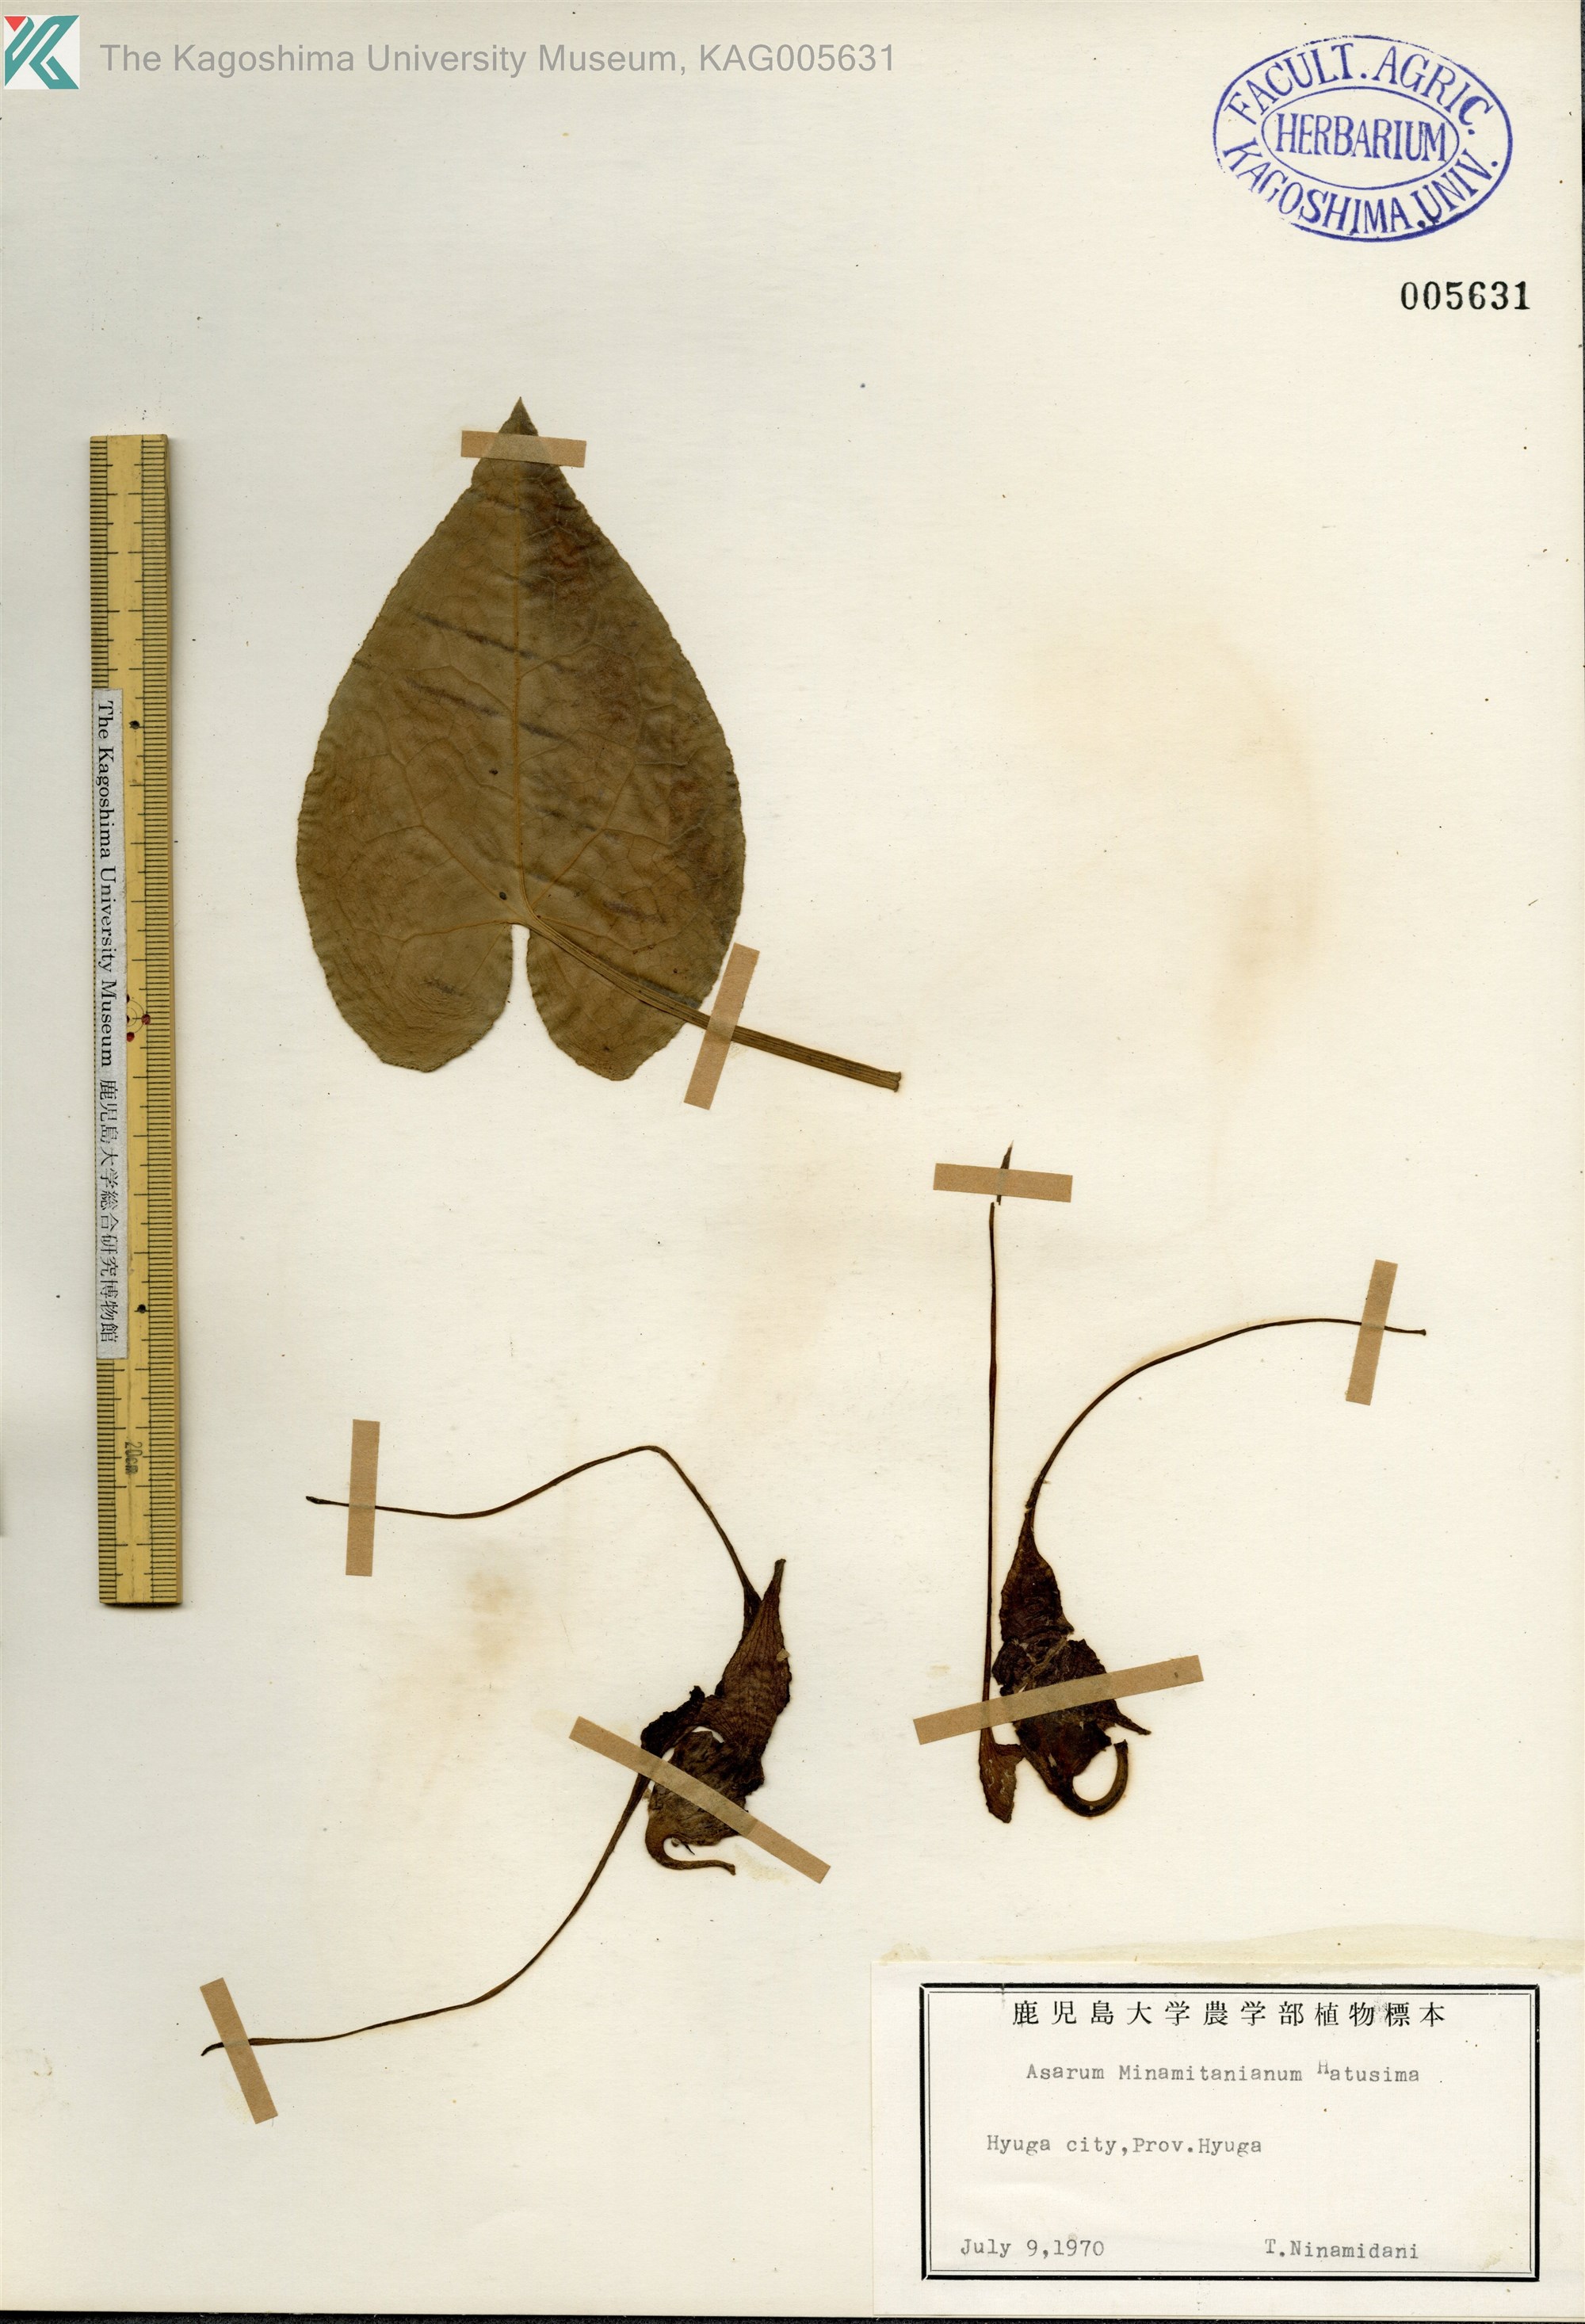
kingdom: Plantae
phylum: Tracheophyta
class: Magnoliopsida
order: Piperales
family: Aristolochiaceae
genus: Asarum
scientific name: Asarum minamitanianum
